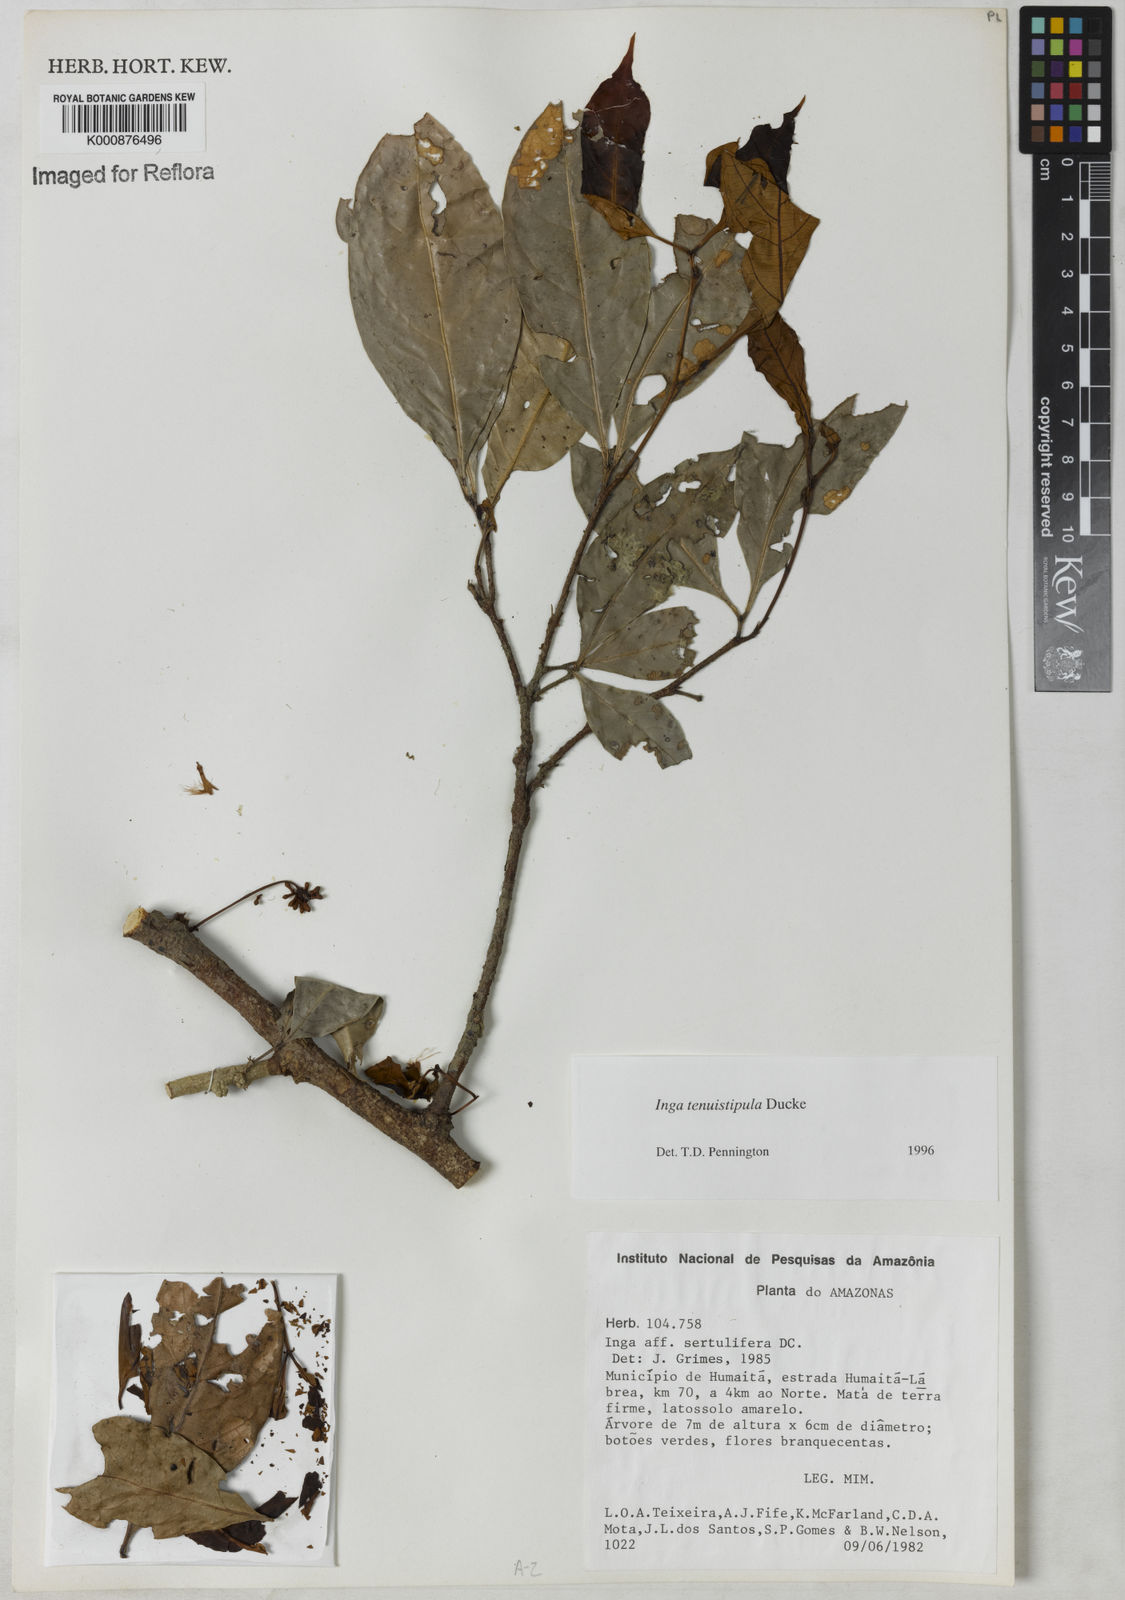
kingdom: Plantae
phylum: Tracheophyta
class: Magnoliopsida
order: Fabales
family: Fabaceae
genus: Inga
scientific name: Inga tenuistipula
